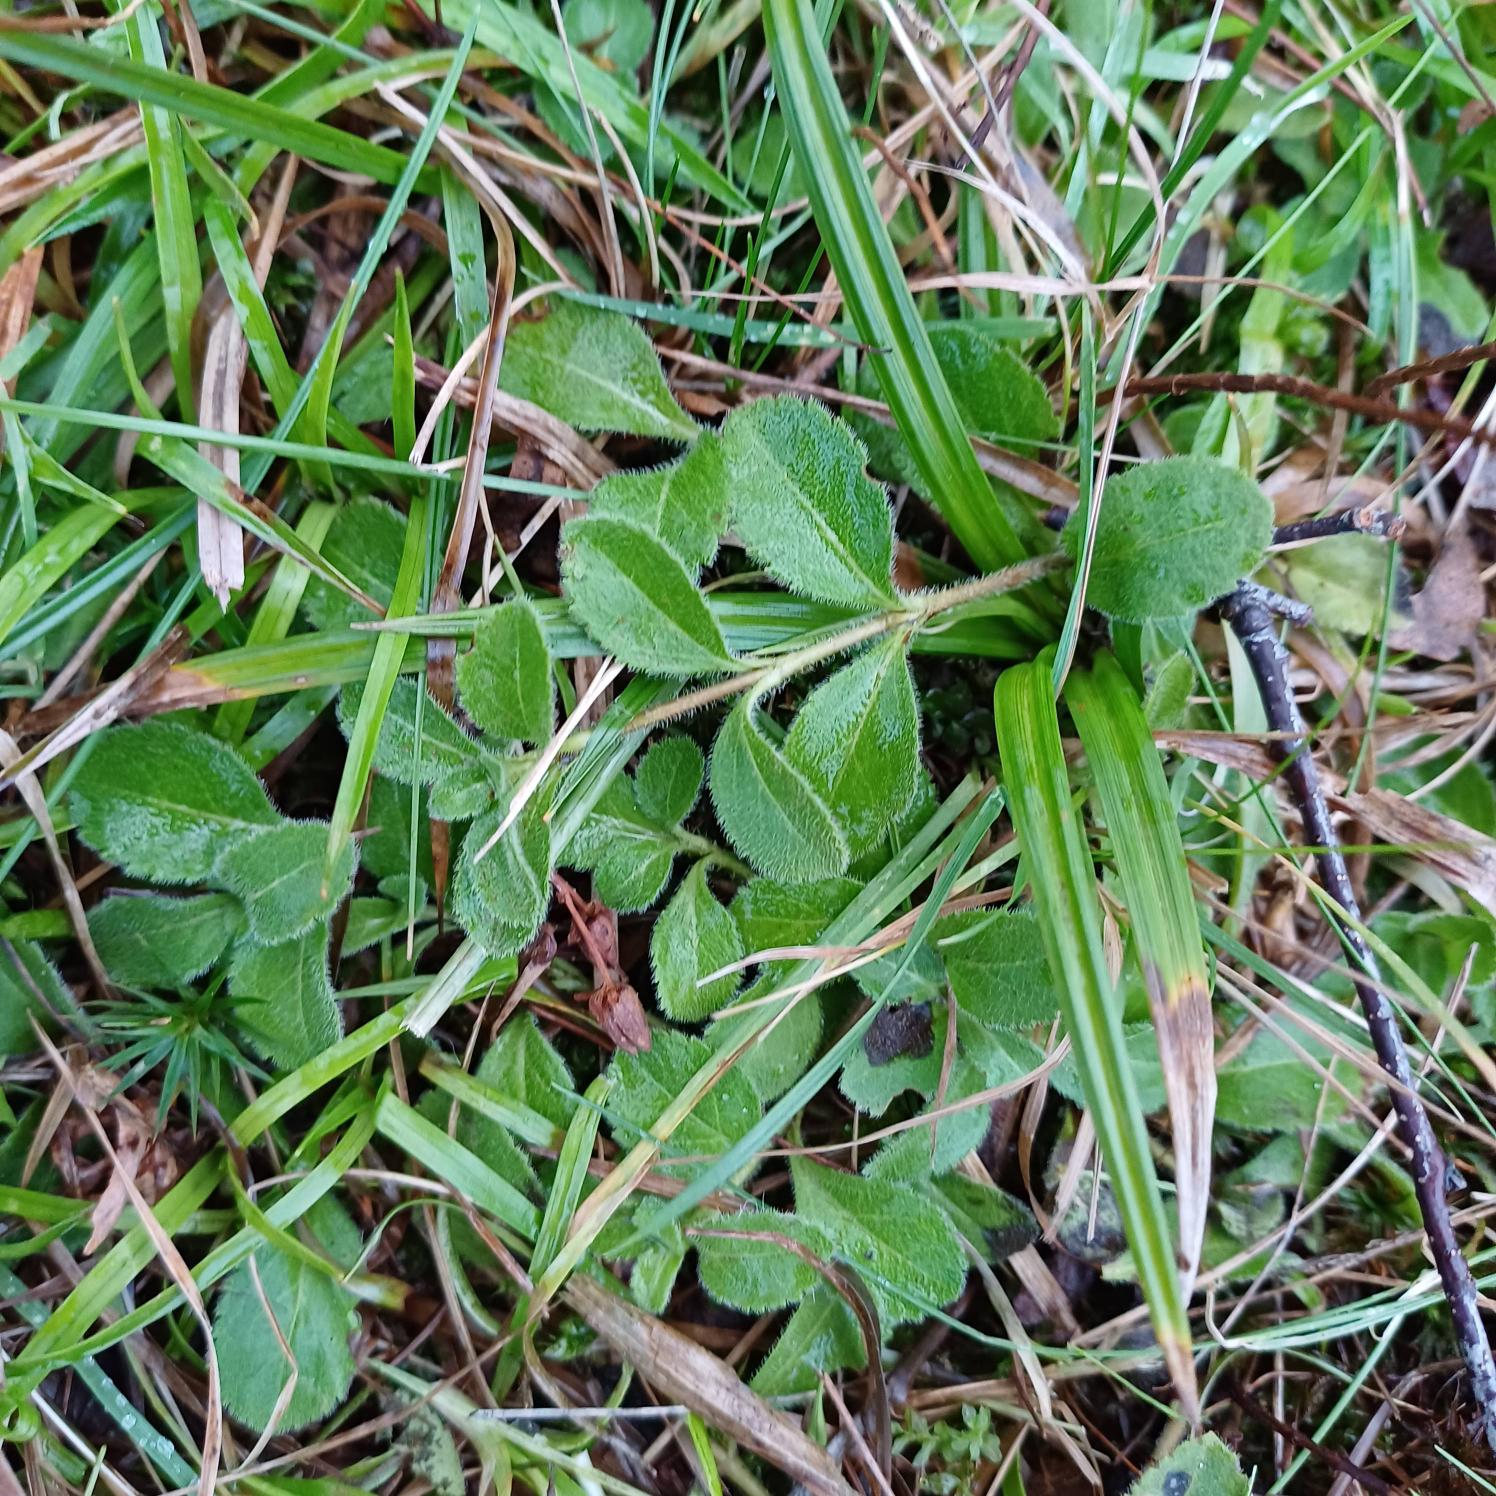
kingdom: Plantae
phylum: Tracheophyta
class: Magnoliopsida
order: Lamiales
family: Plantaginaceae
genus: Veronica
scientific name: Veronica officinalis
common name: Læge-ærenpris
